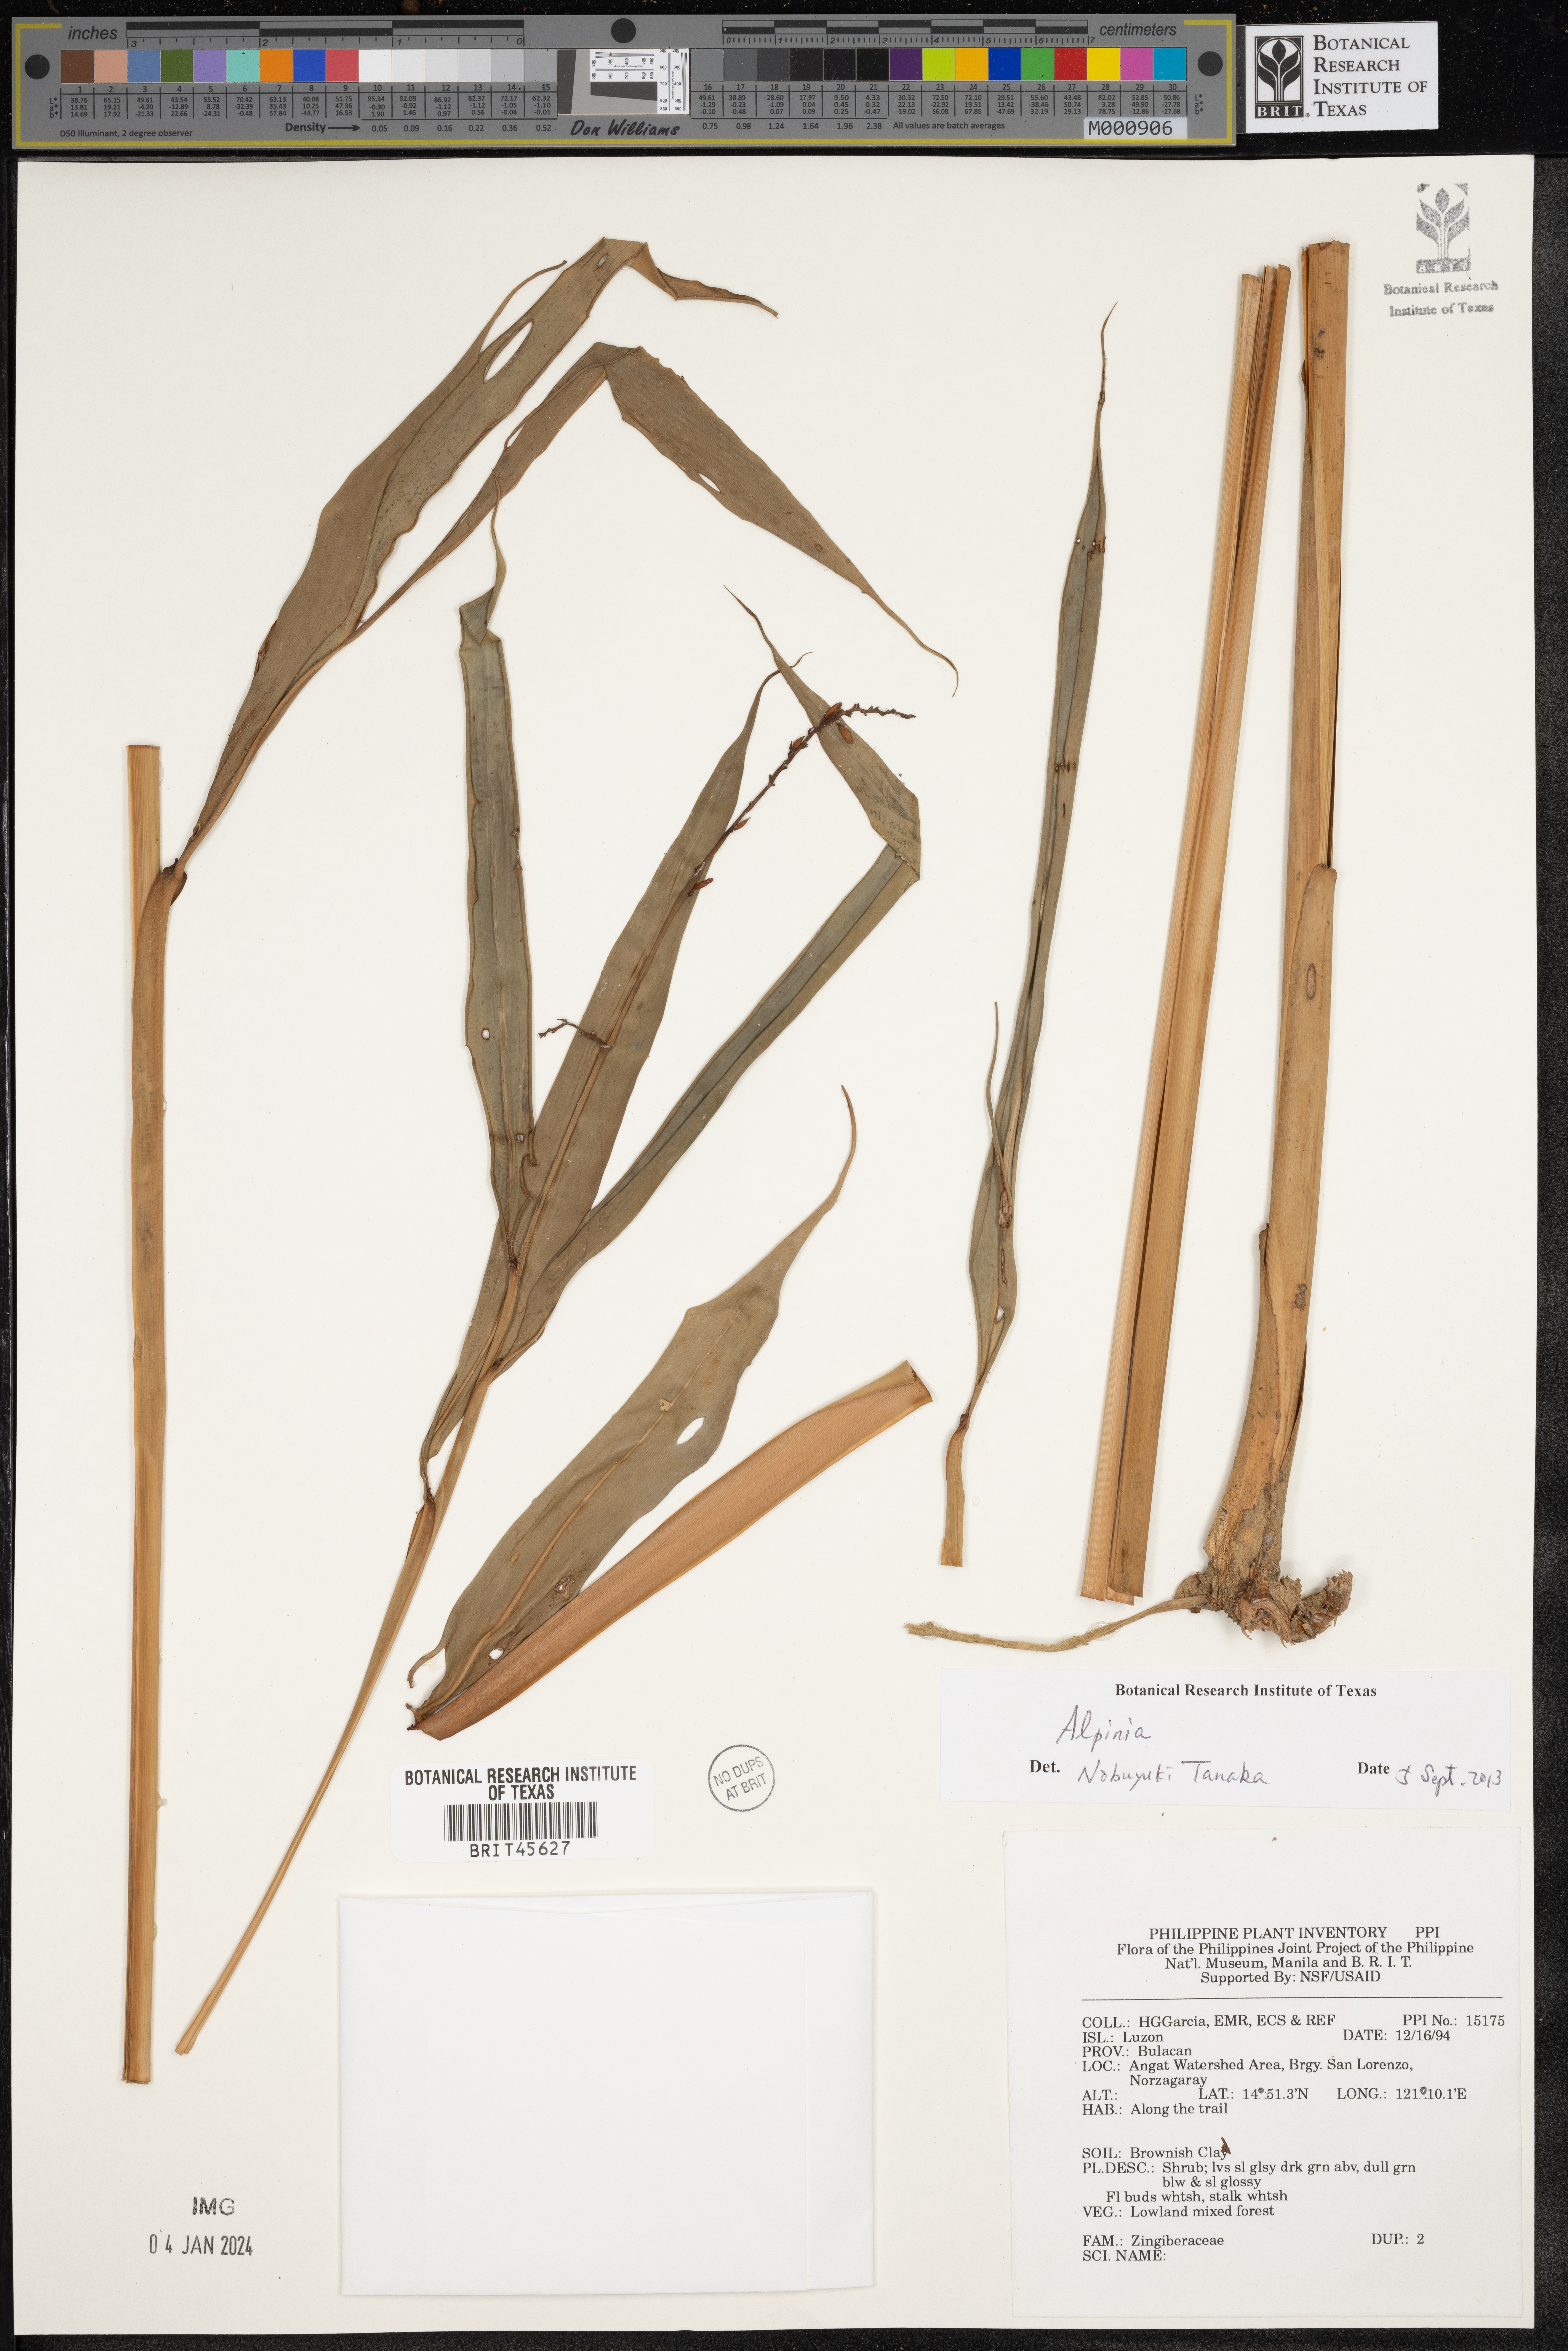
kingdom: Plantae
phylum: Tracheophyta
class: Liliopsida
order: Zingiberales
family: Zingiberaceae
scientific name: Zingiberaceae
